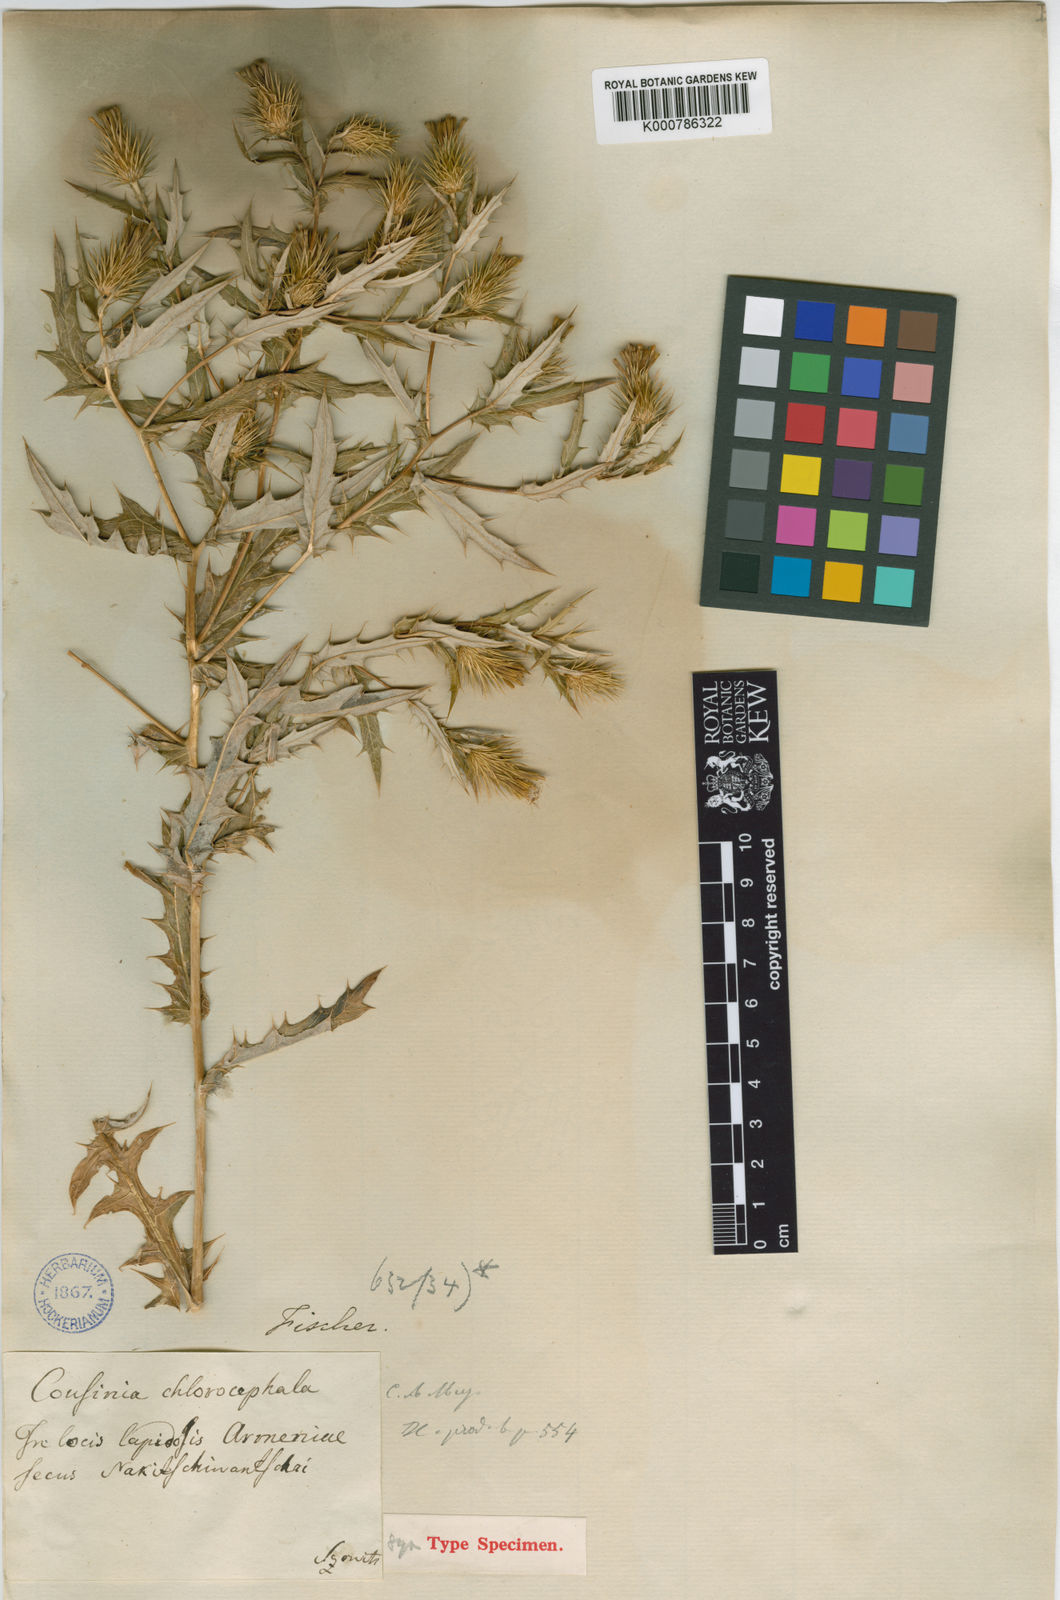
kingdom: Plantae
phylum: Tracheophyta
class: Magnoliopsida
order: Asterales
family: Asteraceae
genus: Cousinia
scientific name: Cousinia chlorocephala
